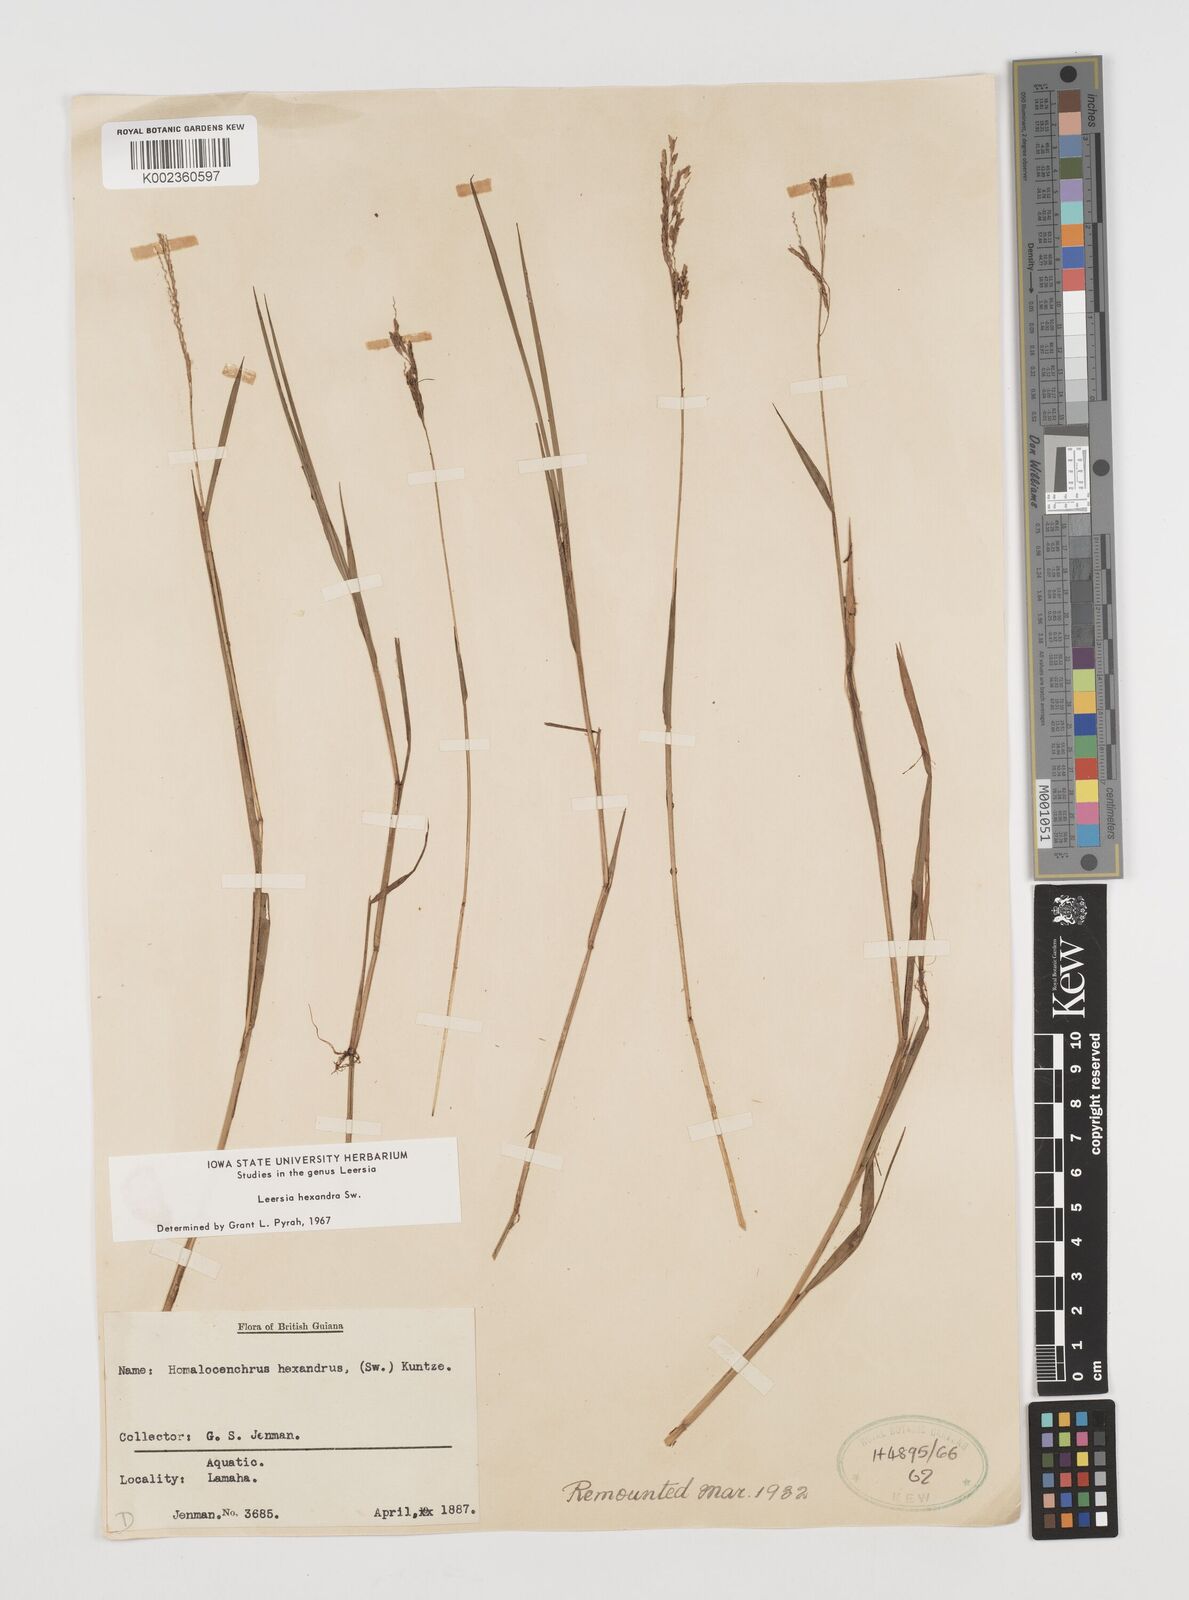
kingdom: Plantae
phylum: Tracheophyta
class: Liliopsida
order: Poales
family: Poaceae
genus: Leersia
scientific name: Leersia hexandra
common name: Southern cut grass
